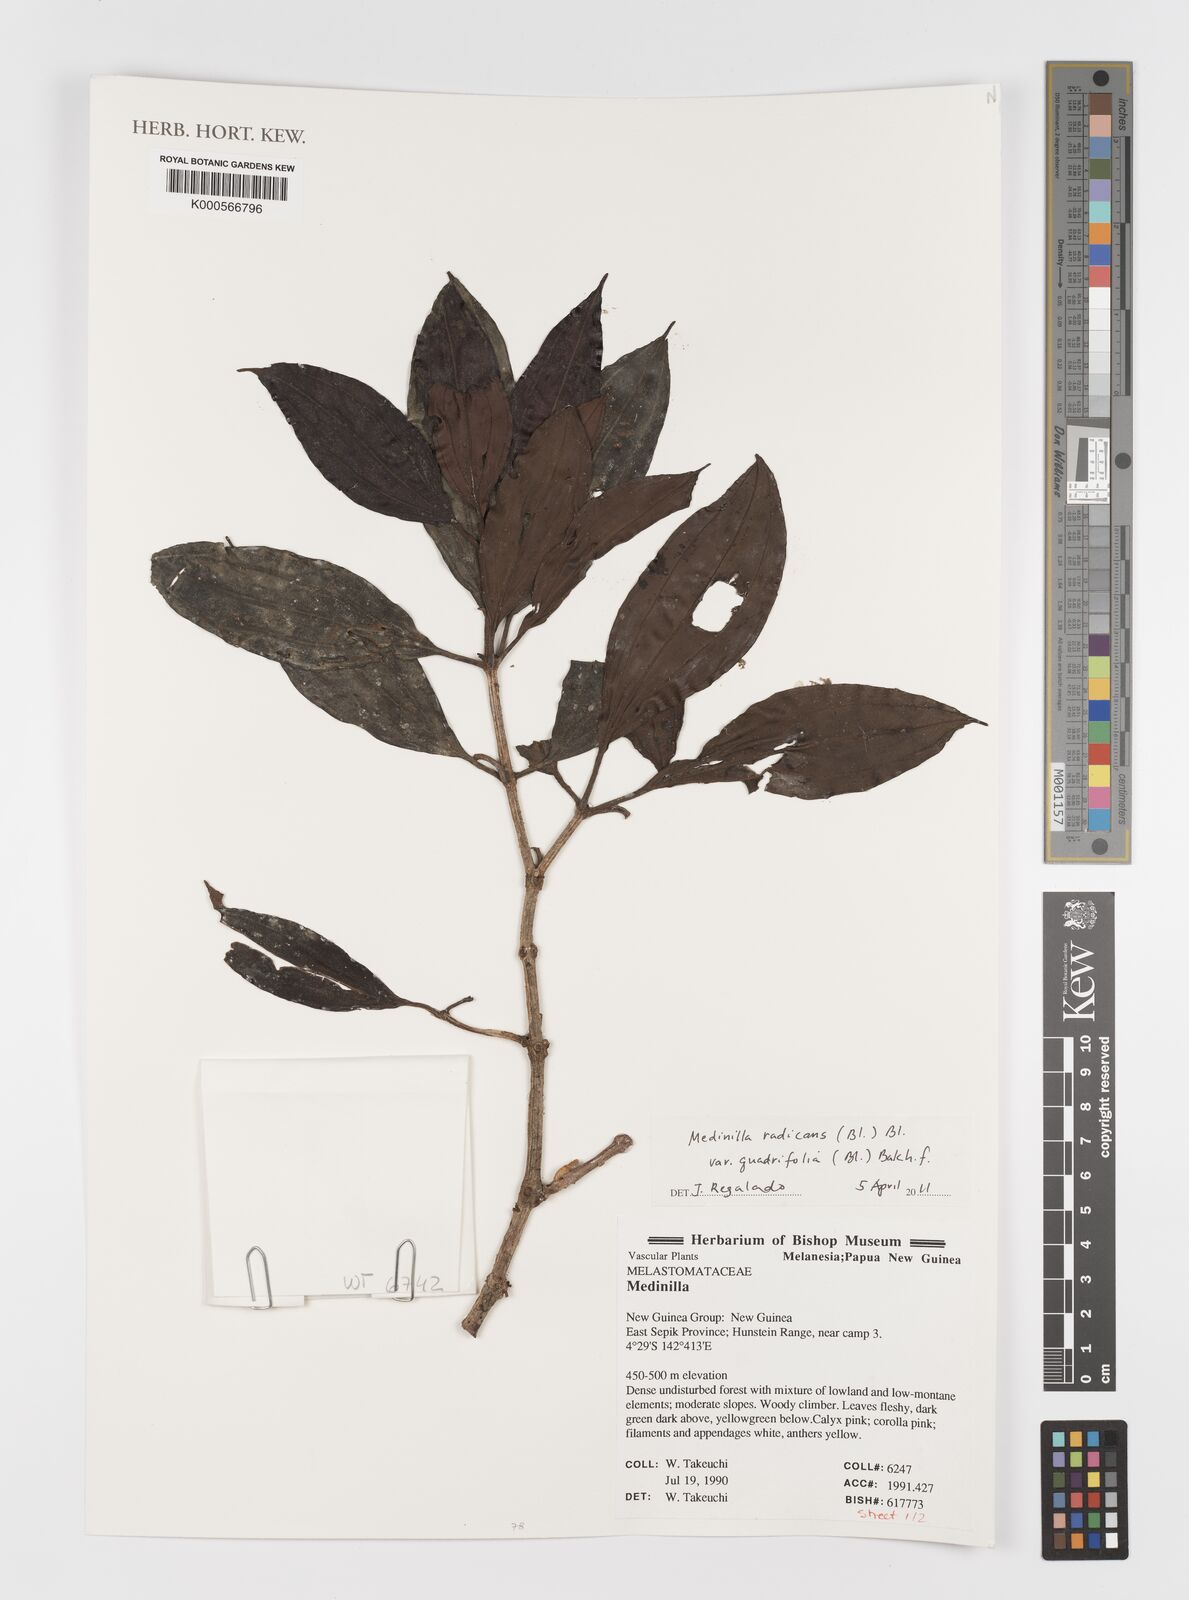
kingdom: Plantae
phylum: Tracheophyta
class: Magnoliopsida
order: Myrtales
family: Melastomataceae
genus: Medinilla
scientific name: Medinilla radicans
